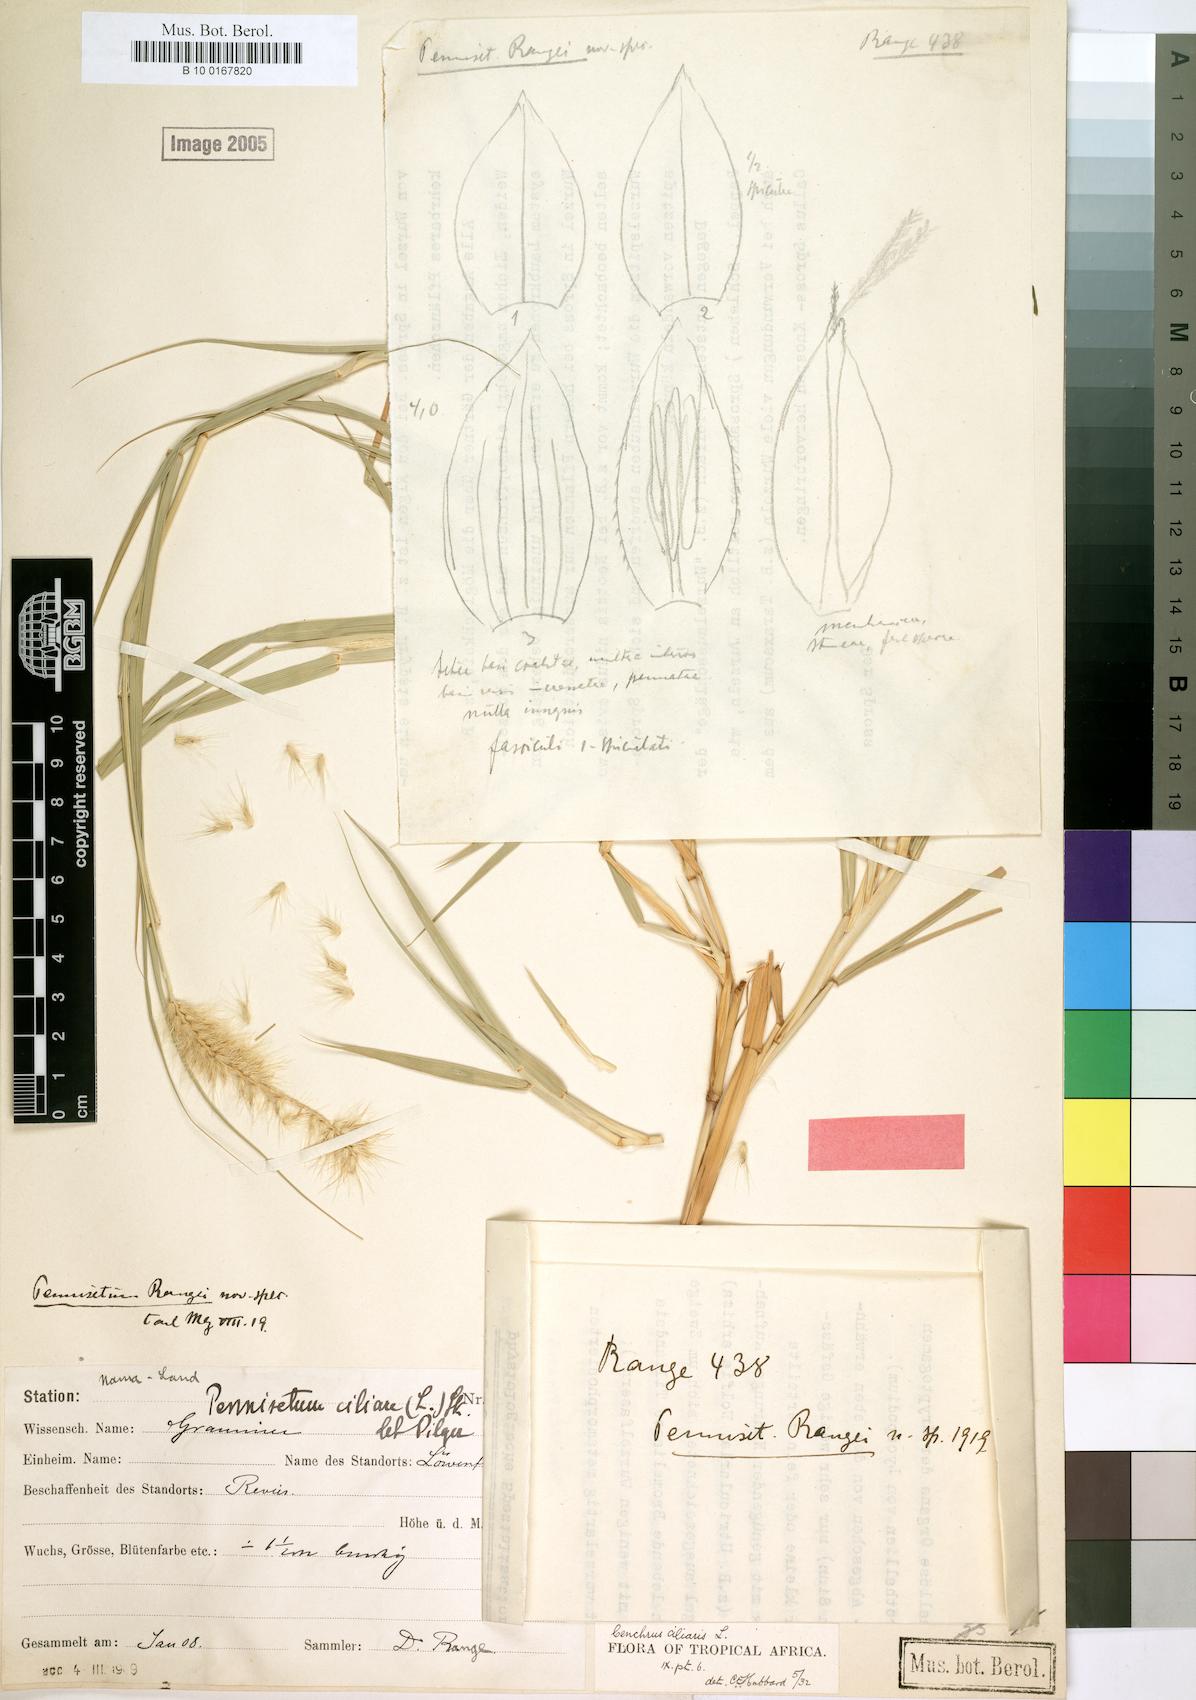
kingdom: Plantae
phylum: Tracheophyta
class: Liliopsida
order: Poales
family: Poaceae
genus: Cenchrus
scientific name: Cenchrus ciliaris
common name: Buffelgrass
